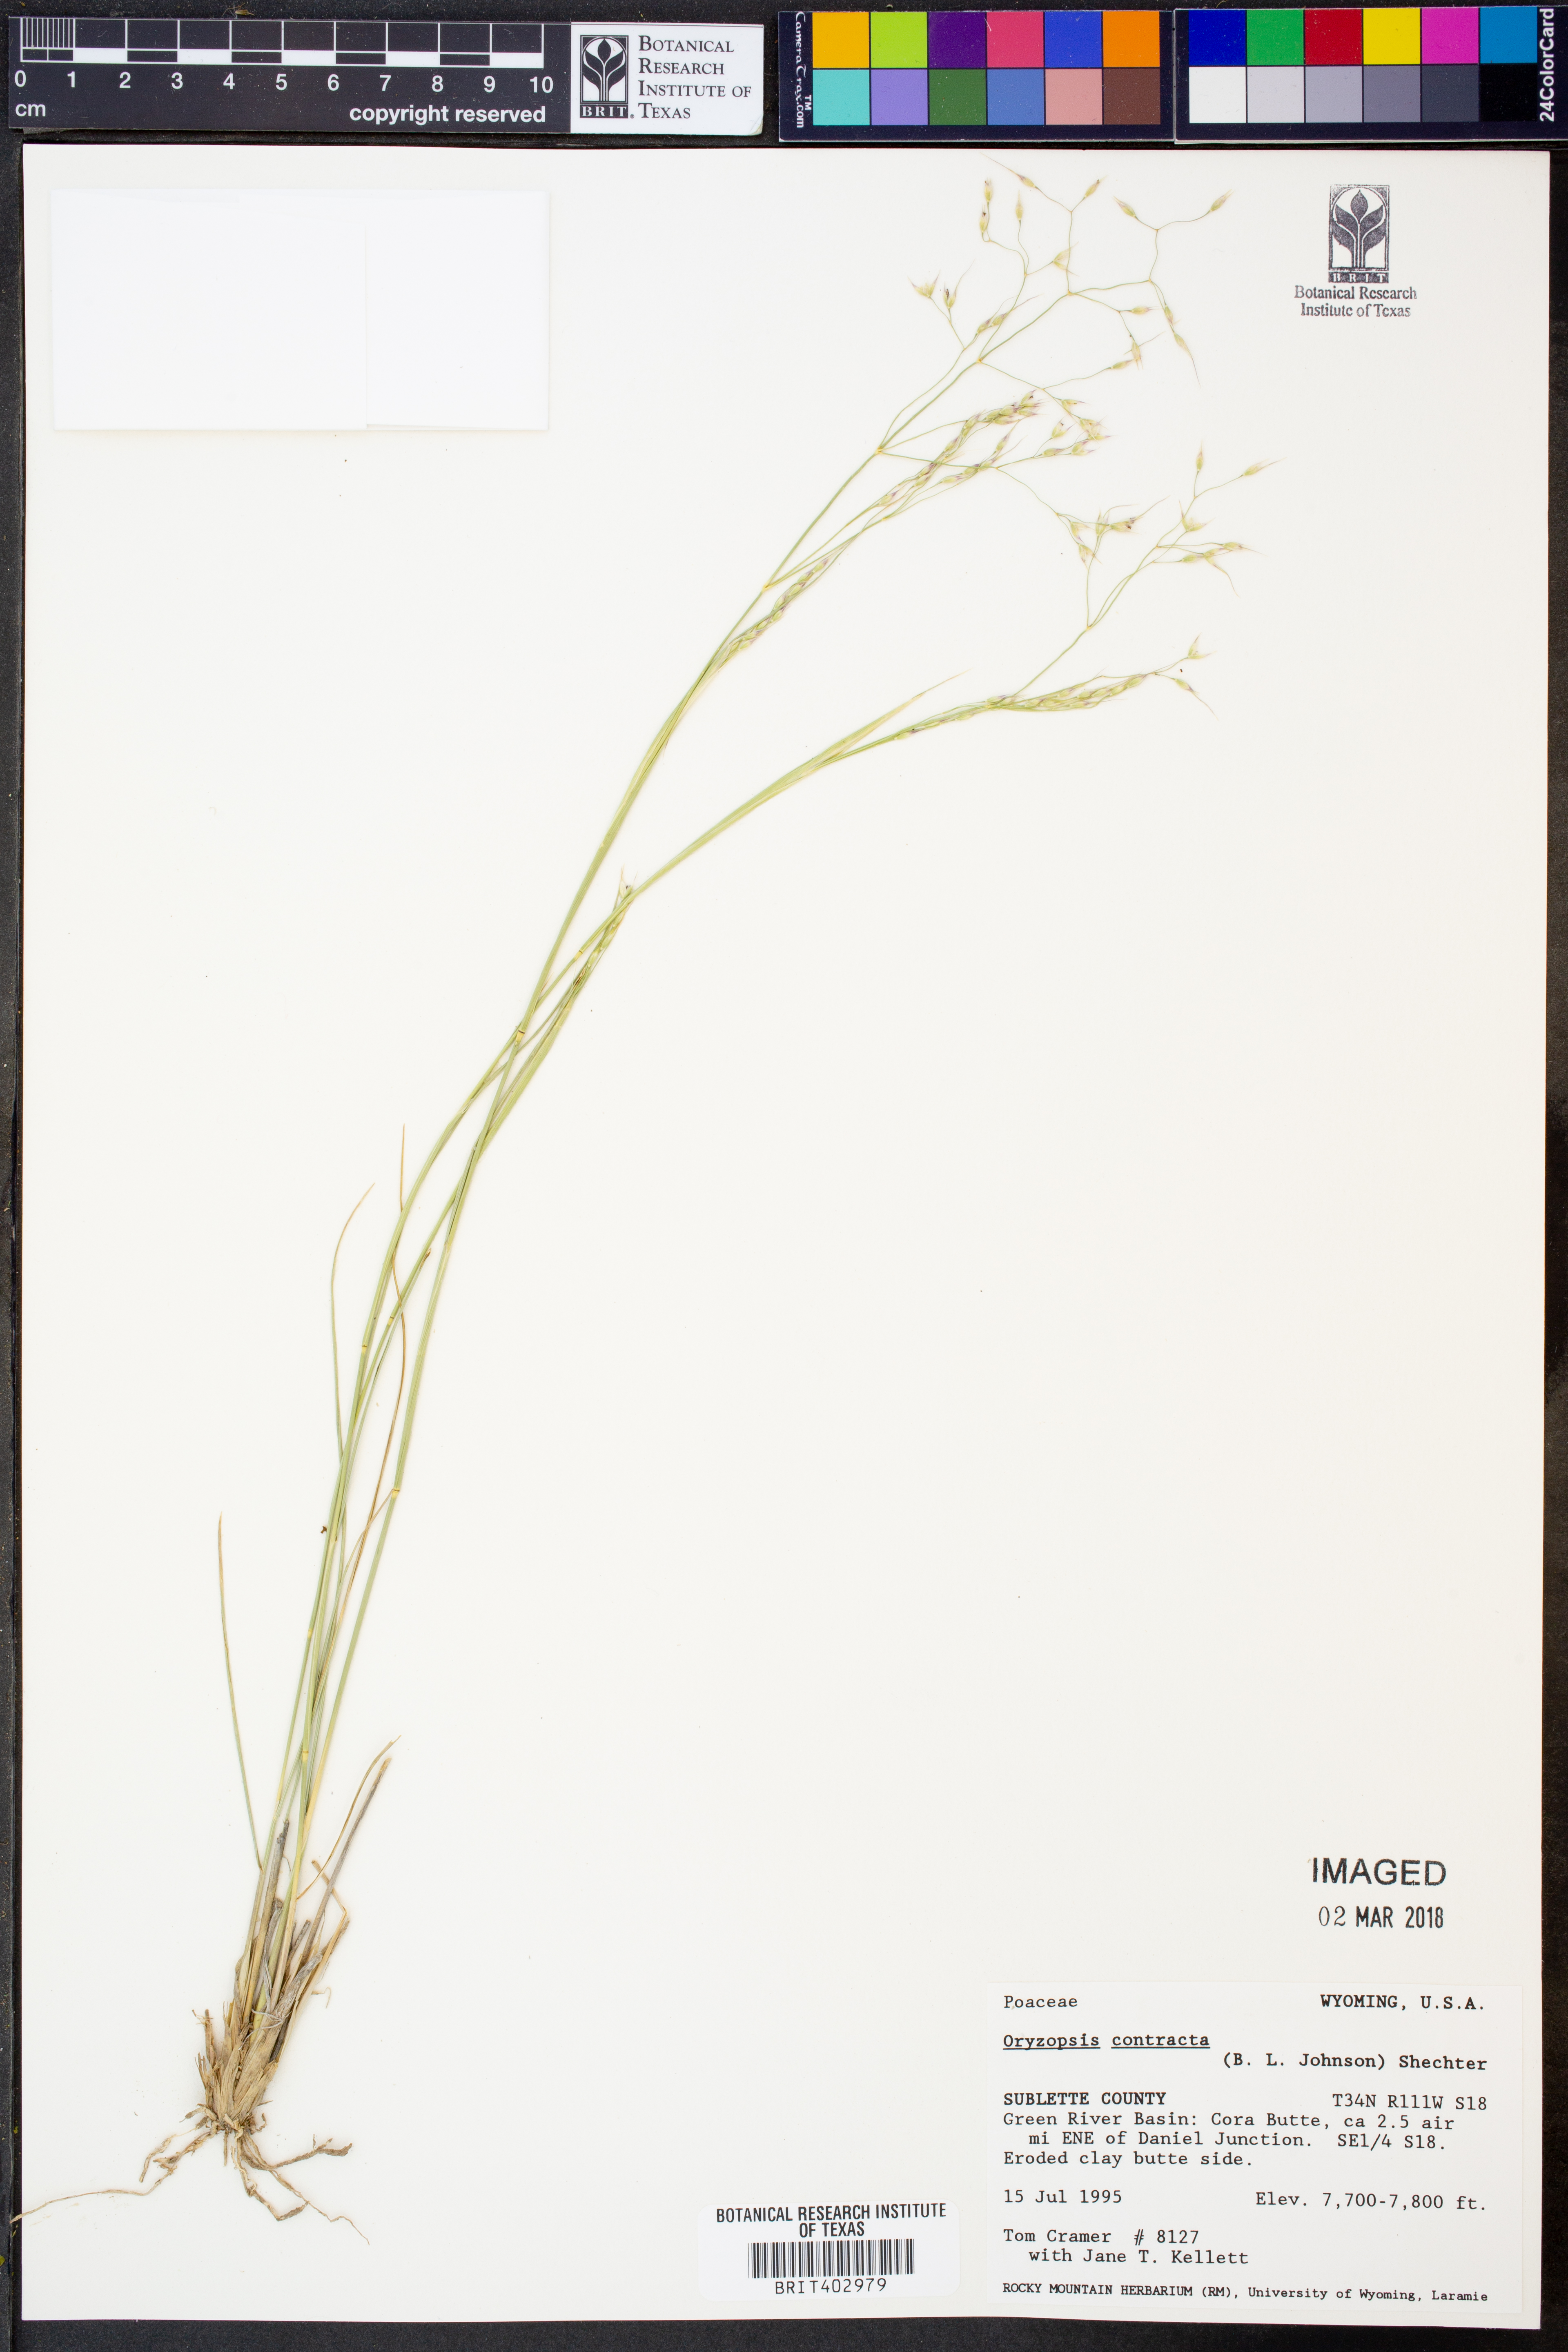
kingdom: Plantae
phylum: Tracheophyta
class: Liliopsida
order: Poales
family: Poaceae
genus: Eriocoma
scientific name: Eriocoma contracta
